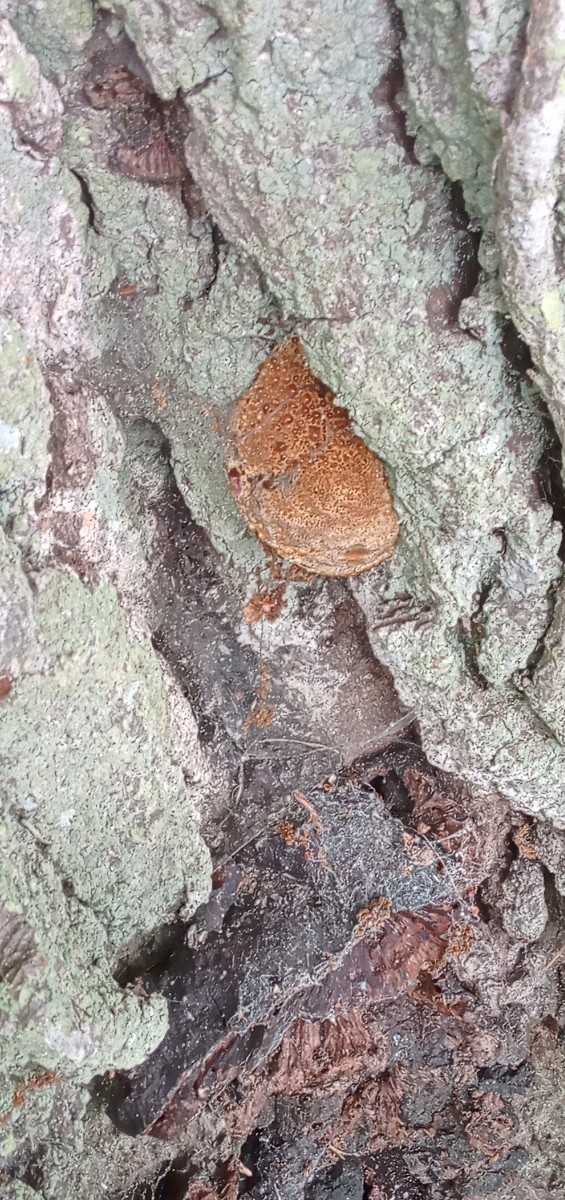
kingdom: Fungi
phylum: Basidiomycota
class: Agaricomycetes
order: Hymenochaetales
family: Hymenochaetaceae
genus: Pseudoinonotus
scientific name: Pseudoinonotus dryadeus
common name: ege-spejlporesvamp
